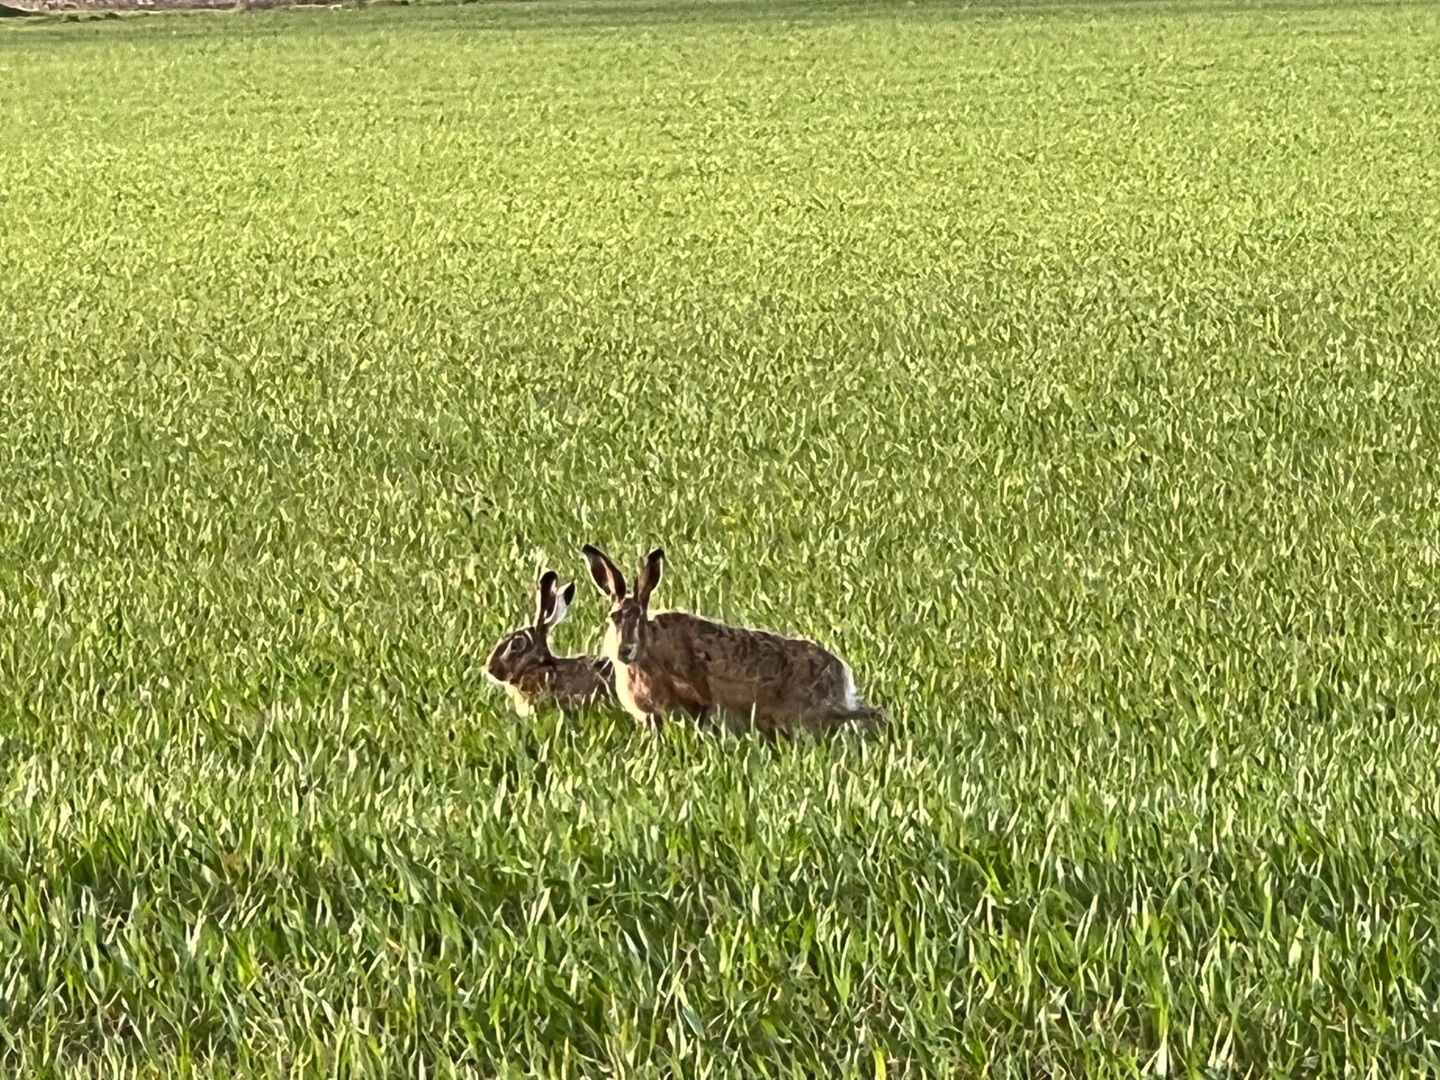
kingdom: Animalia
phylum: Chordata
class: Mammalia
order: Lagomorpha
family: Leporidae
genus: Lepus
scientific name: Lepus europaeus
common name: Hare
